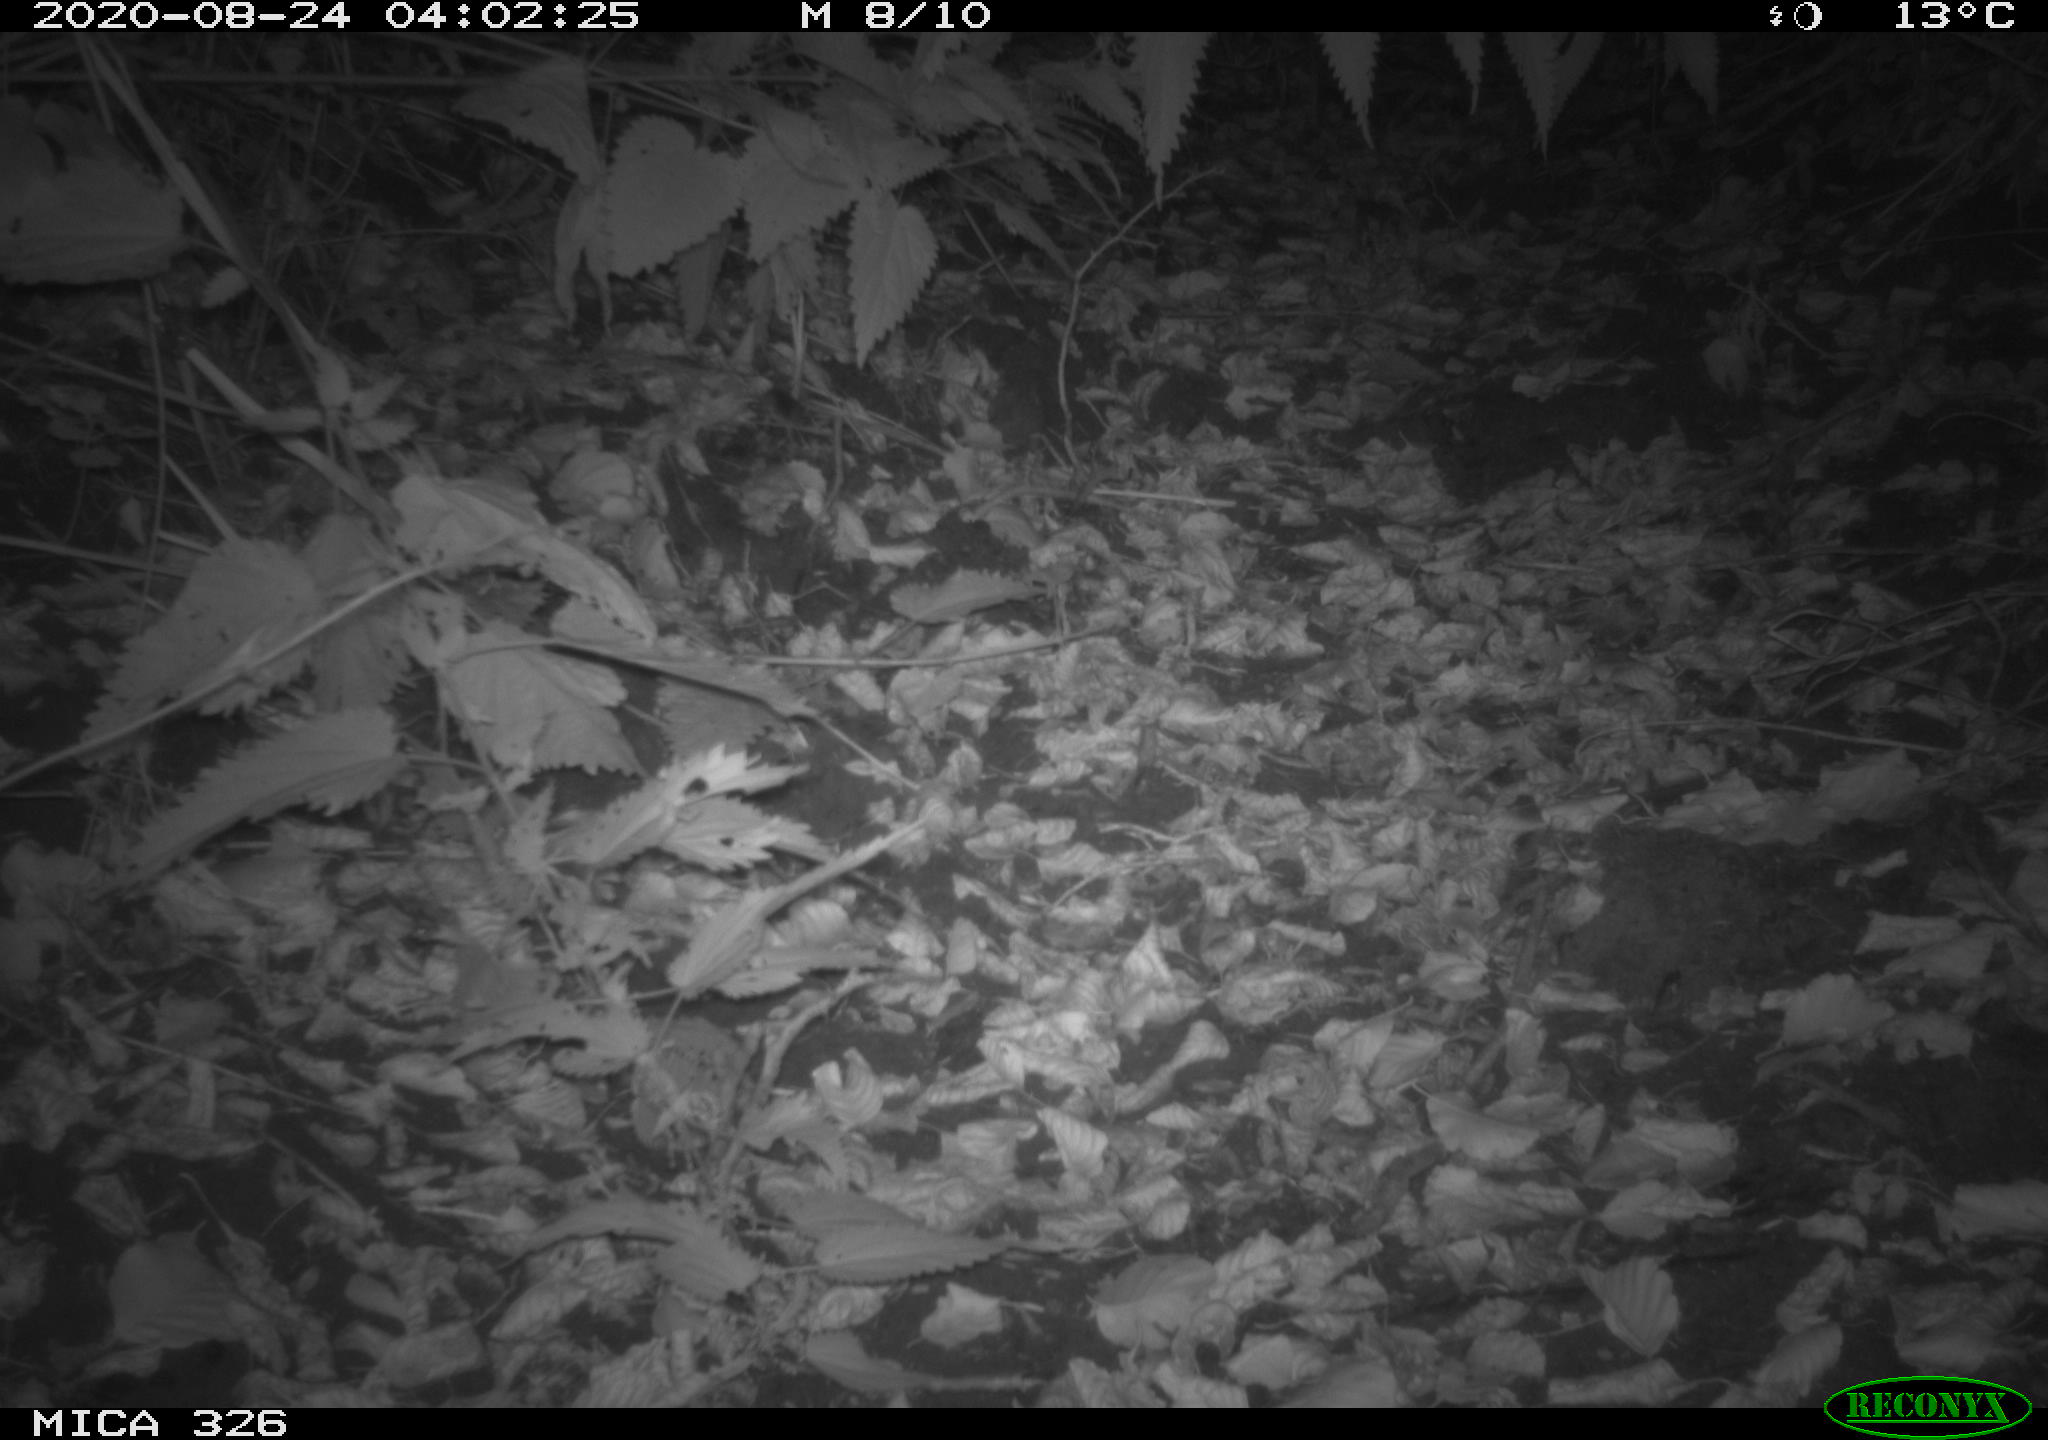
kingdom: Animalia
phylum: Chordata
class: Mammalia
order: Rodentia
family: Muridae
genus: Rattus
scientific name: Rattus norvegicus
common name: Brown rat
